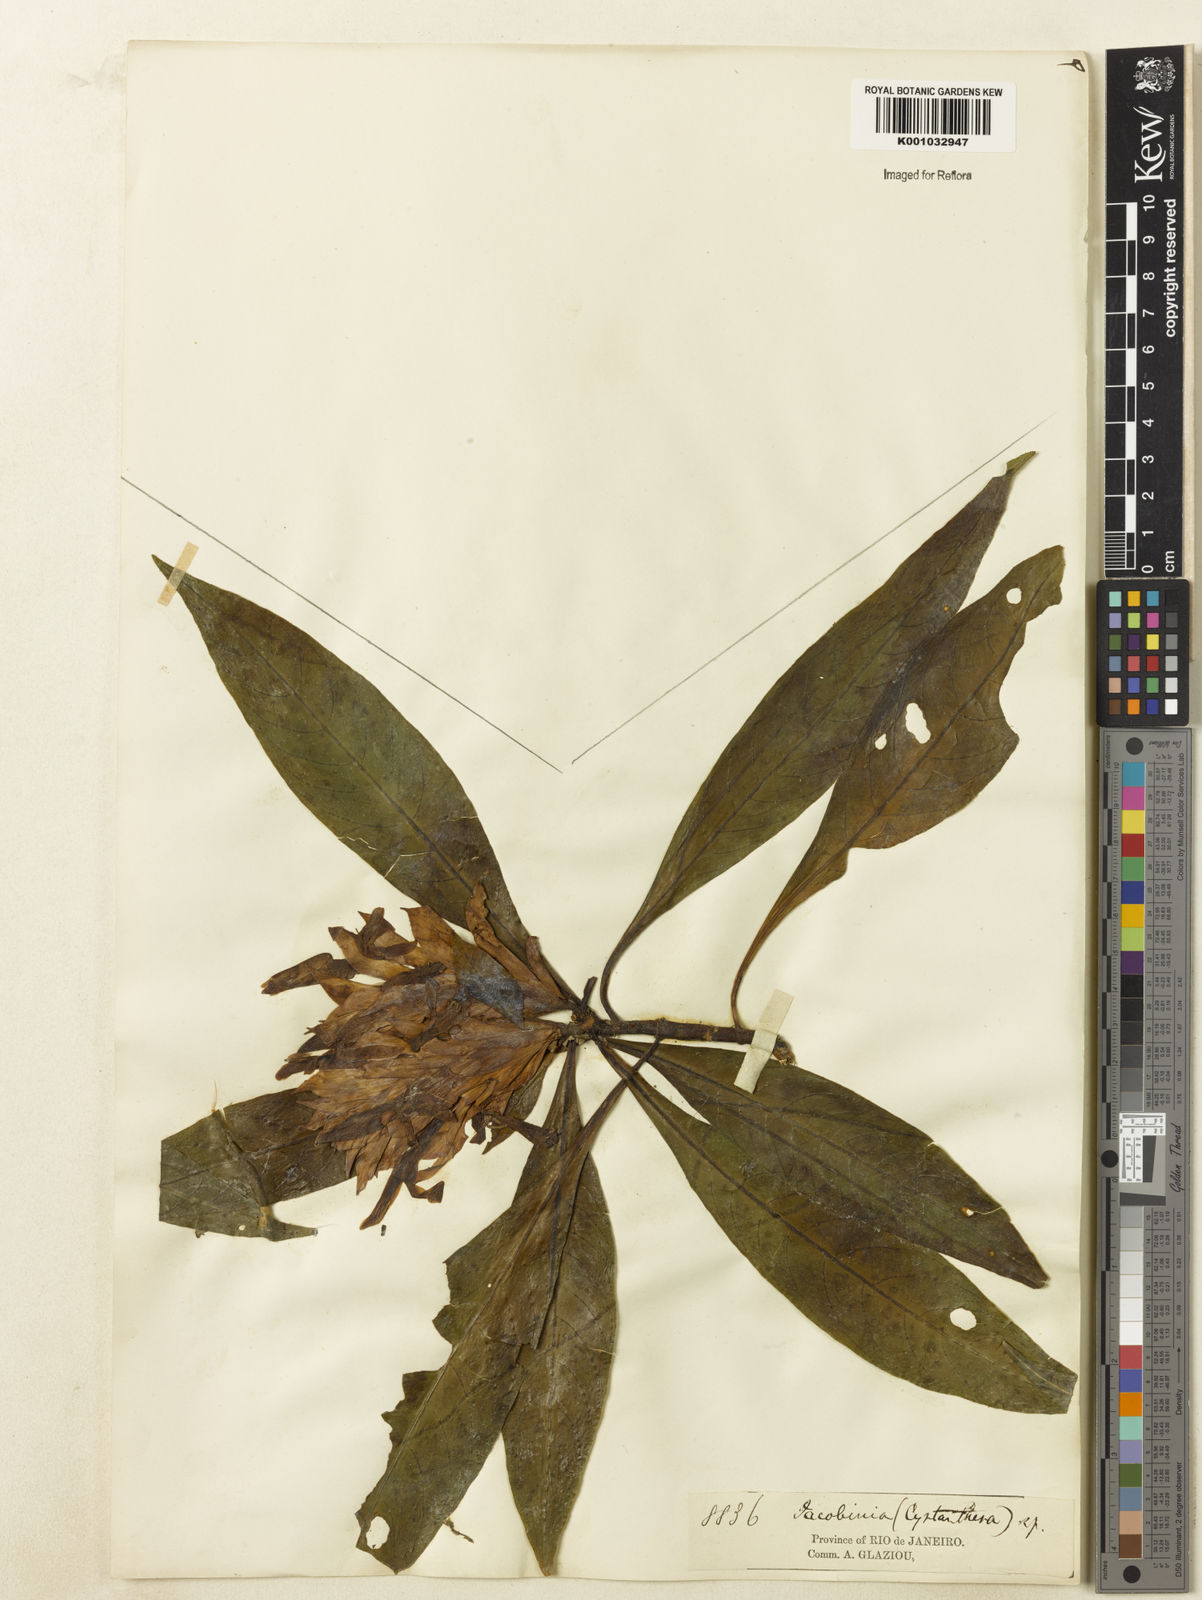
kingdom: Plantae
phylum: Tracheophyta
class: Magnoliopsida
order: Lamiales
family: Acanthaceae
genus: Aphelandra
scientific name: Aphelandra claussenii
